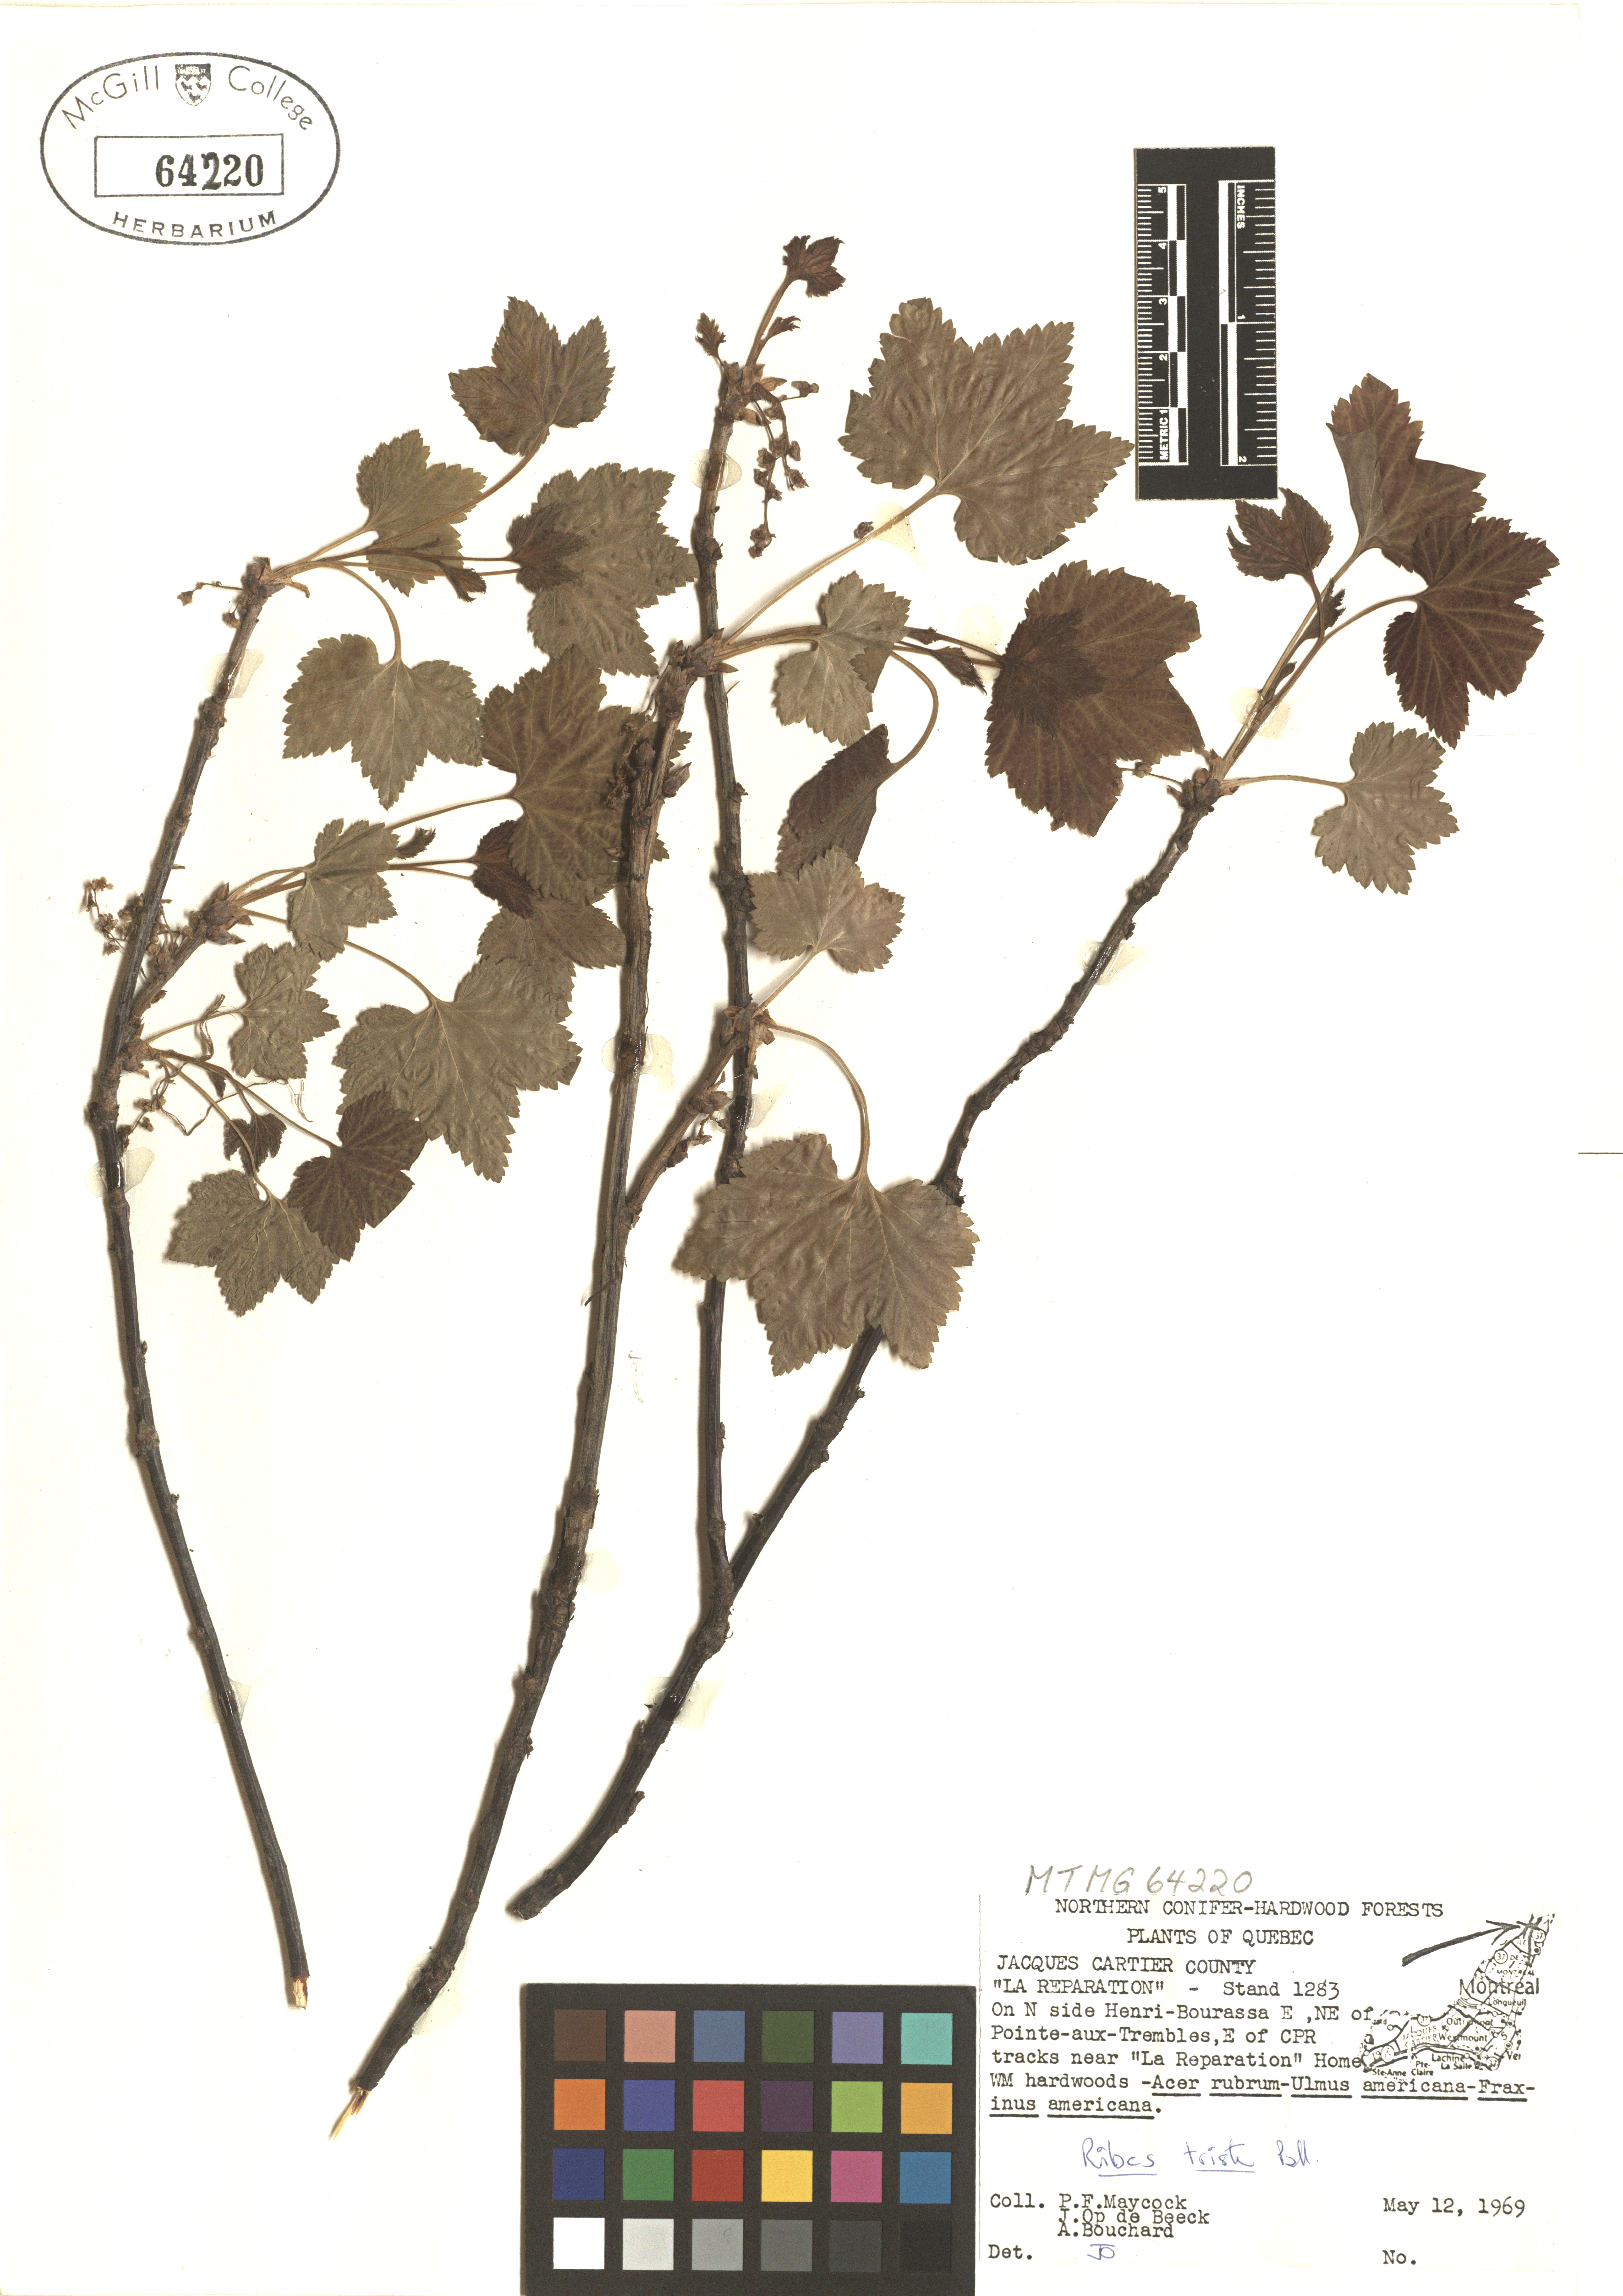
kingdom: Plantae
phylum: Tracheophyta
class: Magnoliopsida
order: Saxifragales
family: Grossulariaceae
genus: Ribes
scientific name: Ribes triste
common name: Swamp red currant
